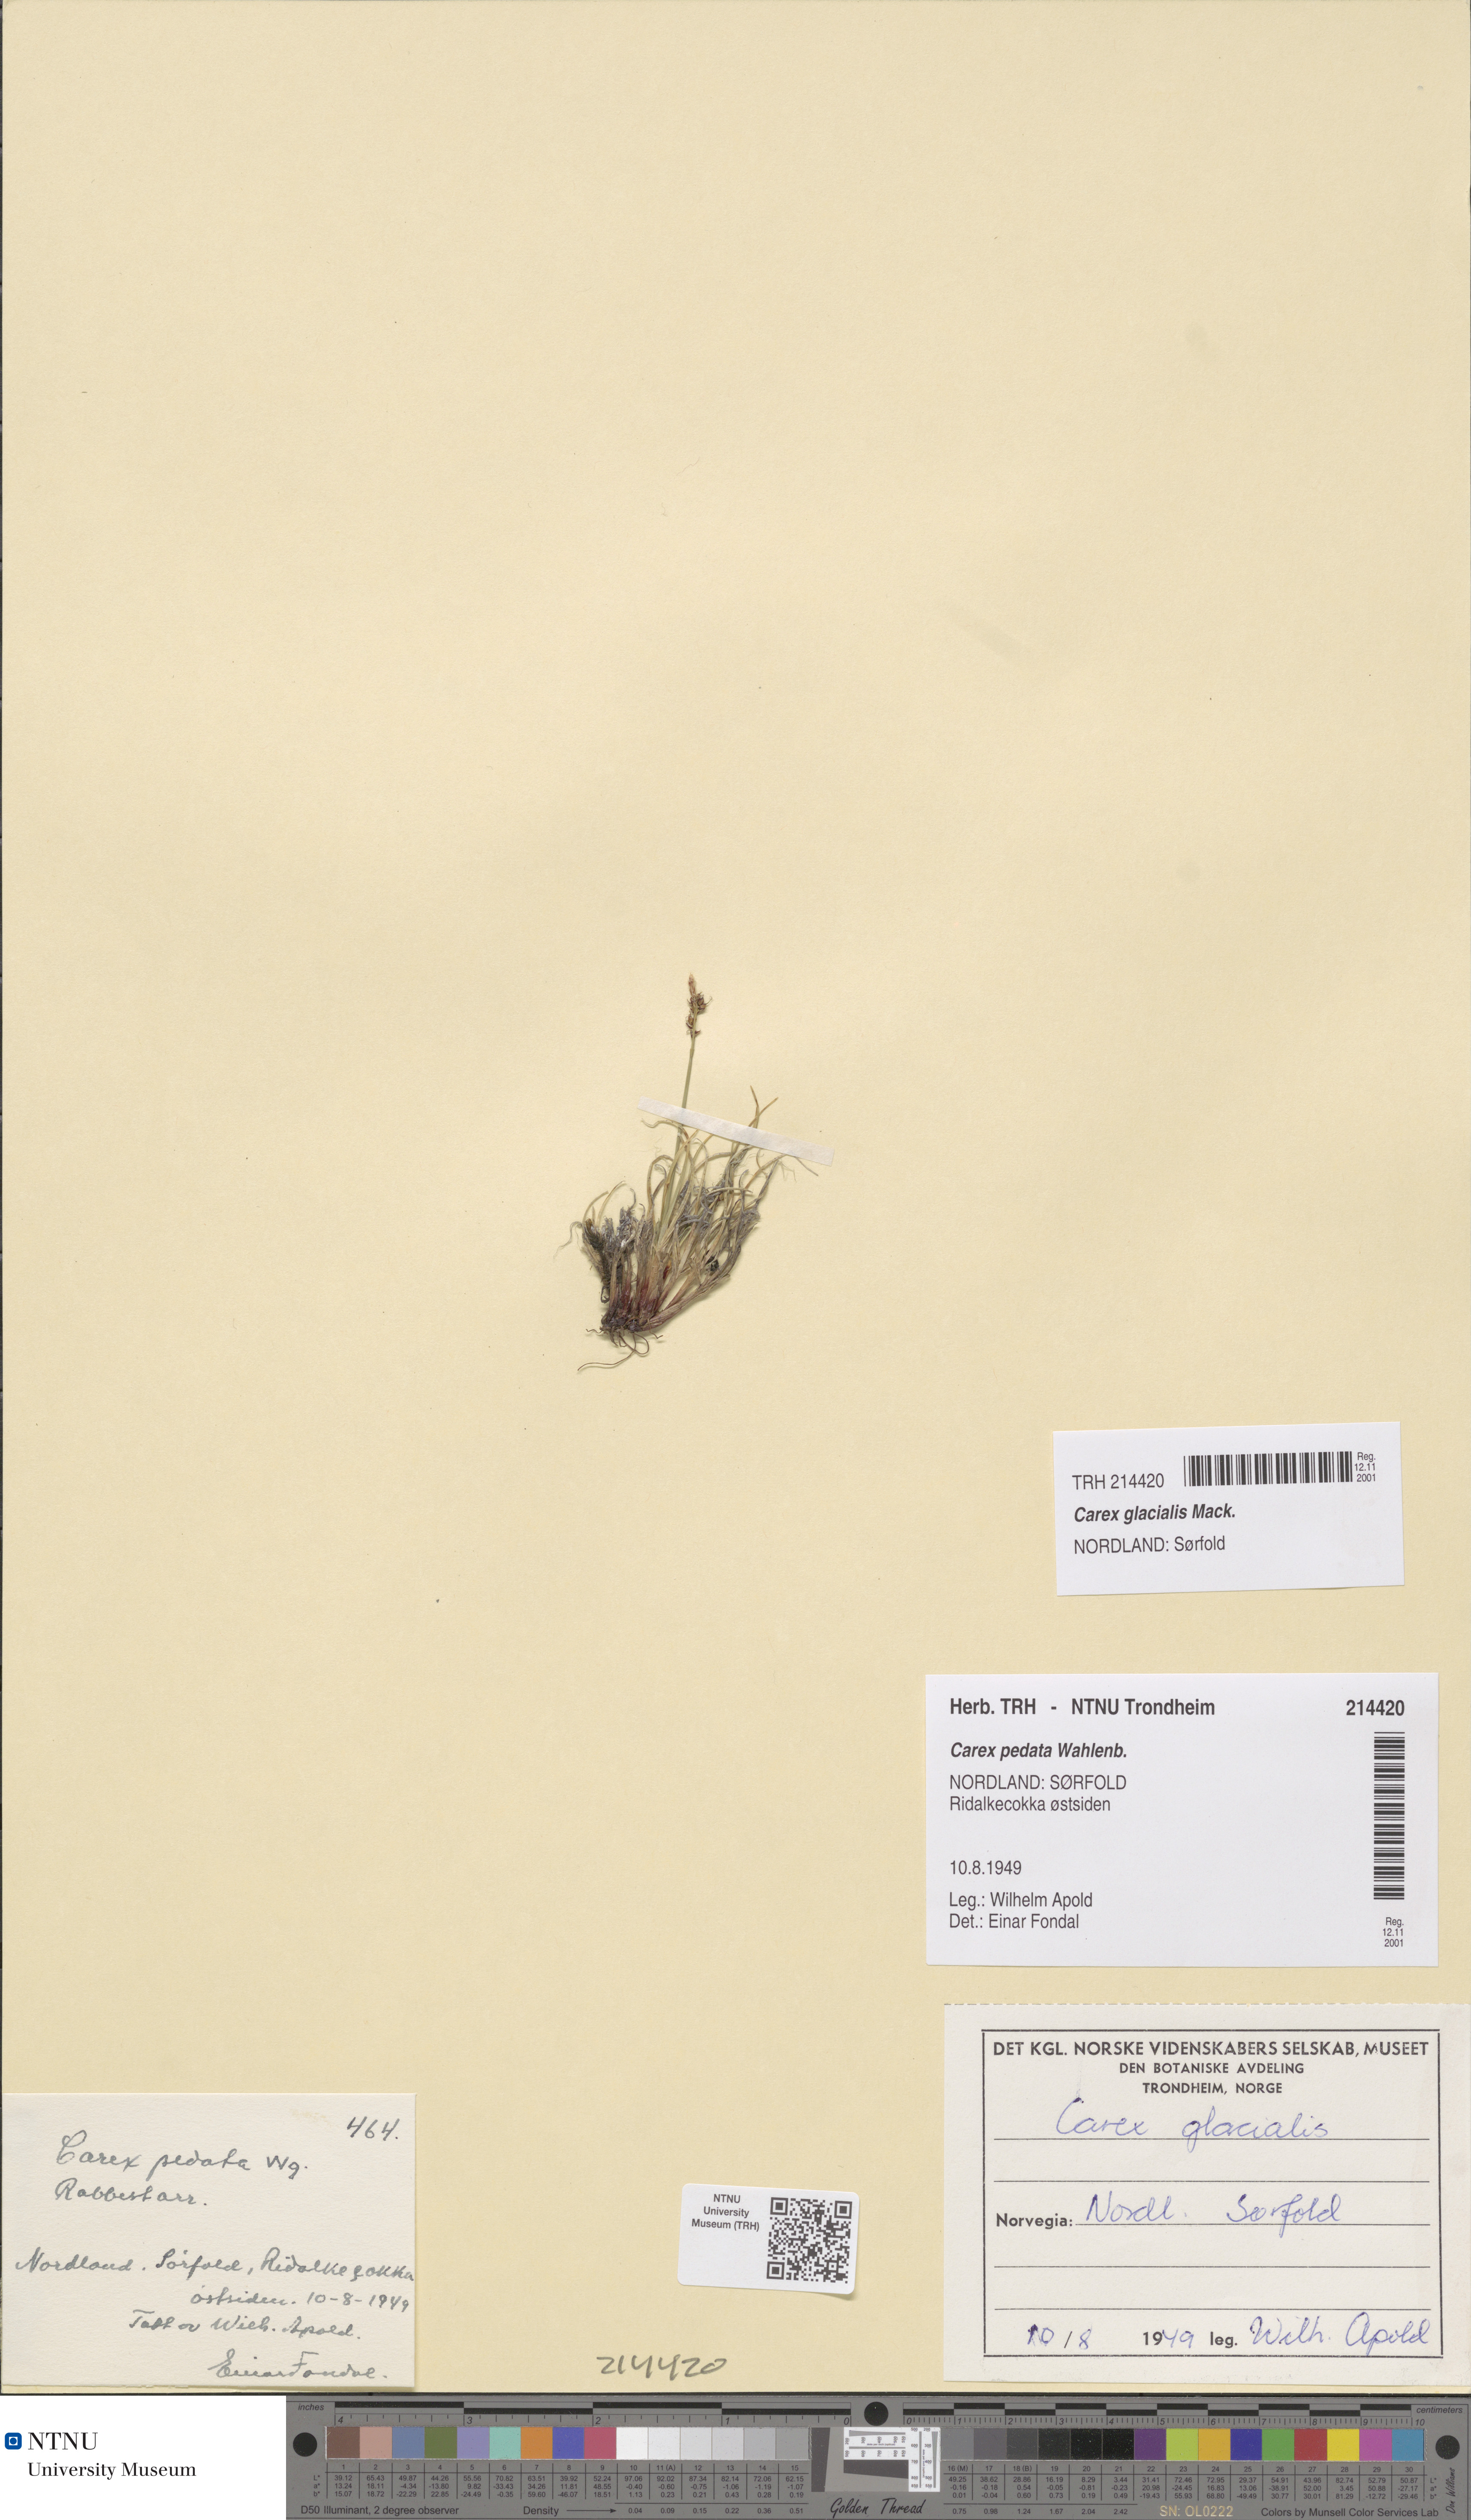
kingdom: Plantae
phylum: Tracheophyta
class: Liliopsida
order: Poales
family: Cyperaceae
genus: Carex
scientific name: Carex glacialis
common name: Newfoundland sedge
